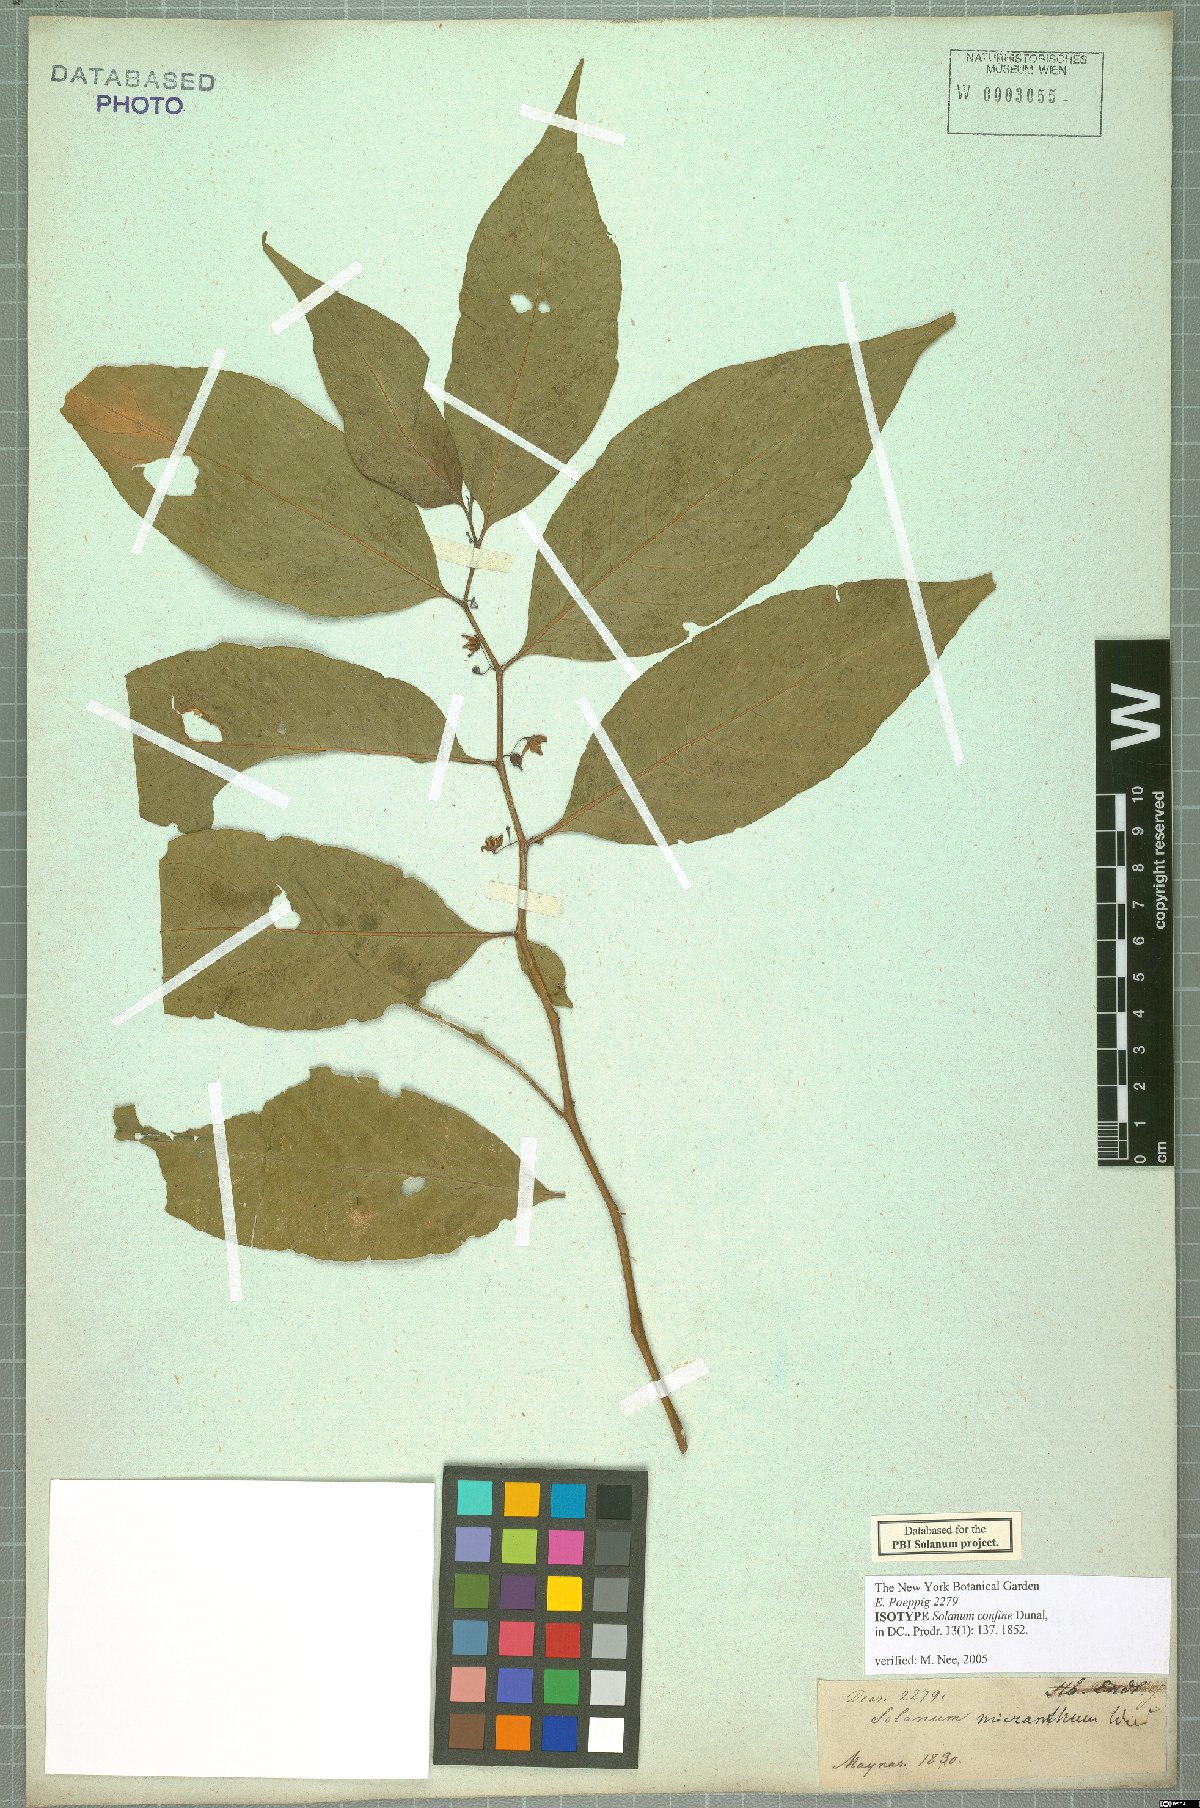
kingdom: Plantae
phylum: Tracheophyta
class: Magnoliopsida
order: Solanales
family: Solanaceae
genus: Solanum
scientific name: Solanum confine
